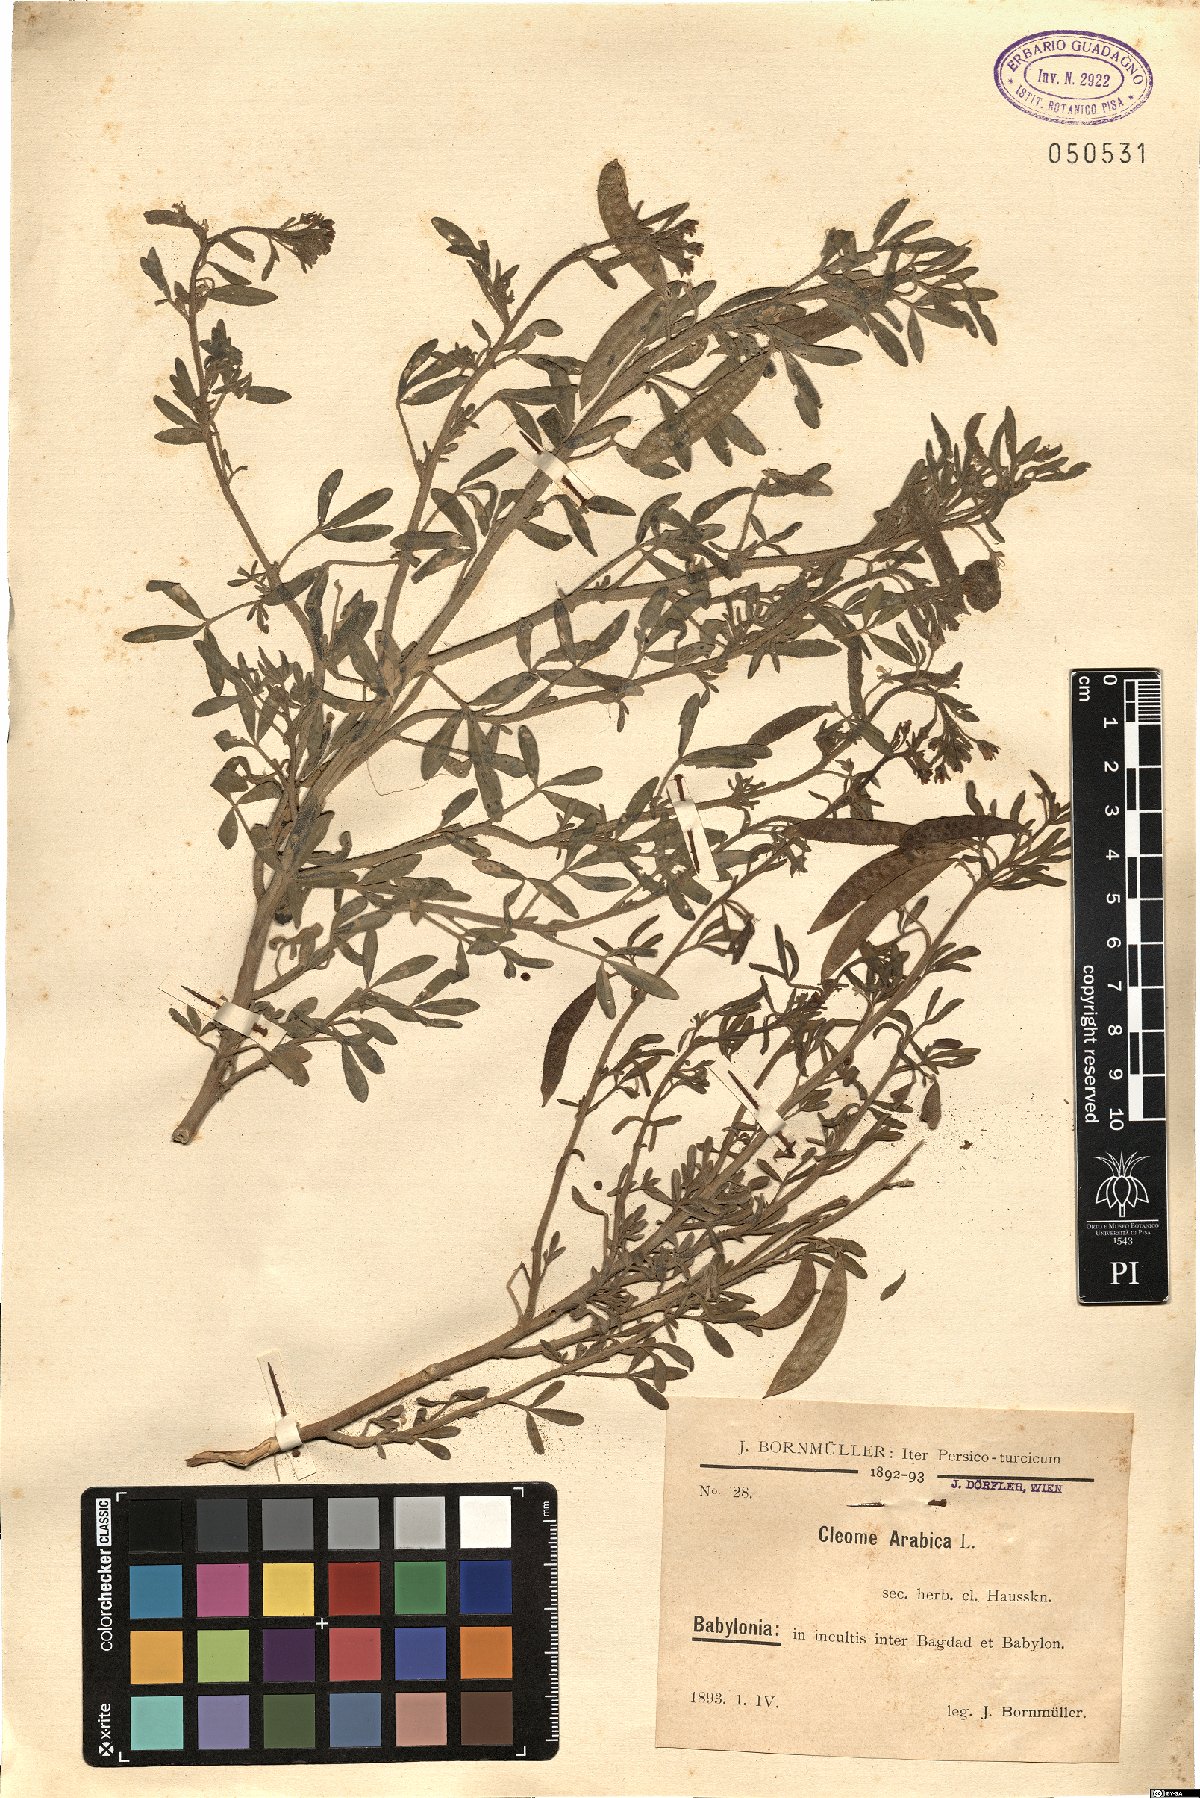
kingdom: Plantae
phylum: Tracheophyta
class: Magnoliopsida
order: Brassicales
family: Cleomaceae
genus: Cleome
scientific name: Cleome arabica
